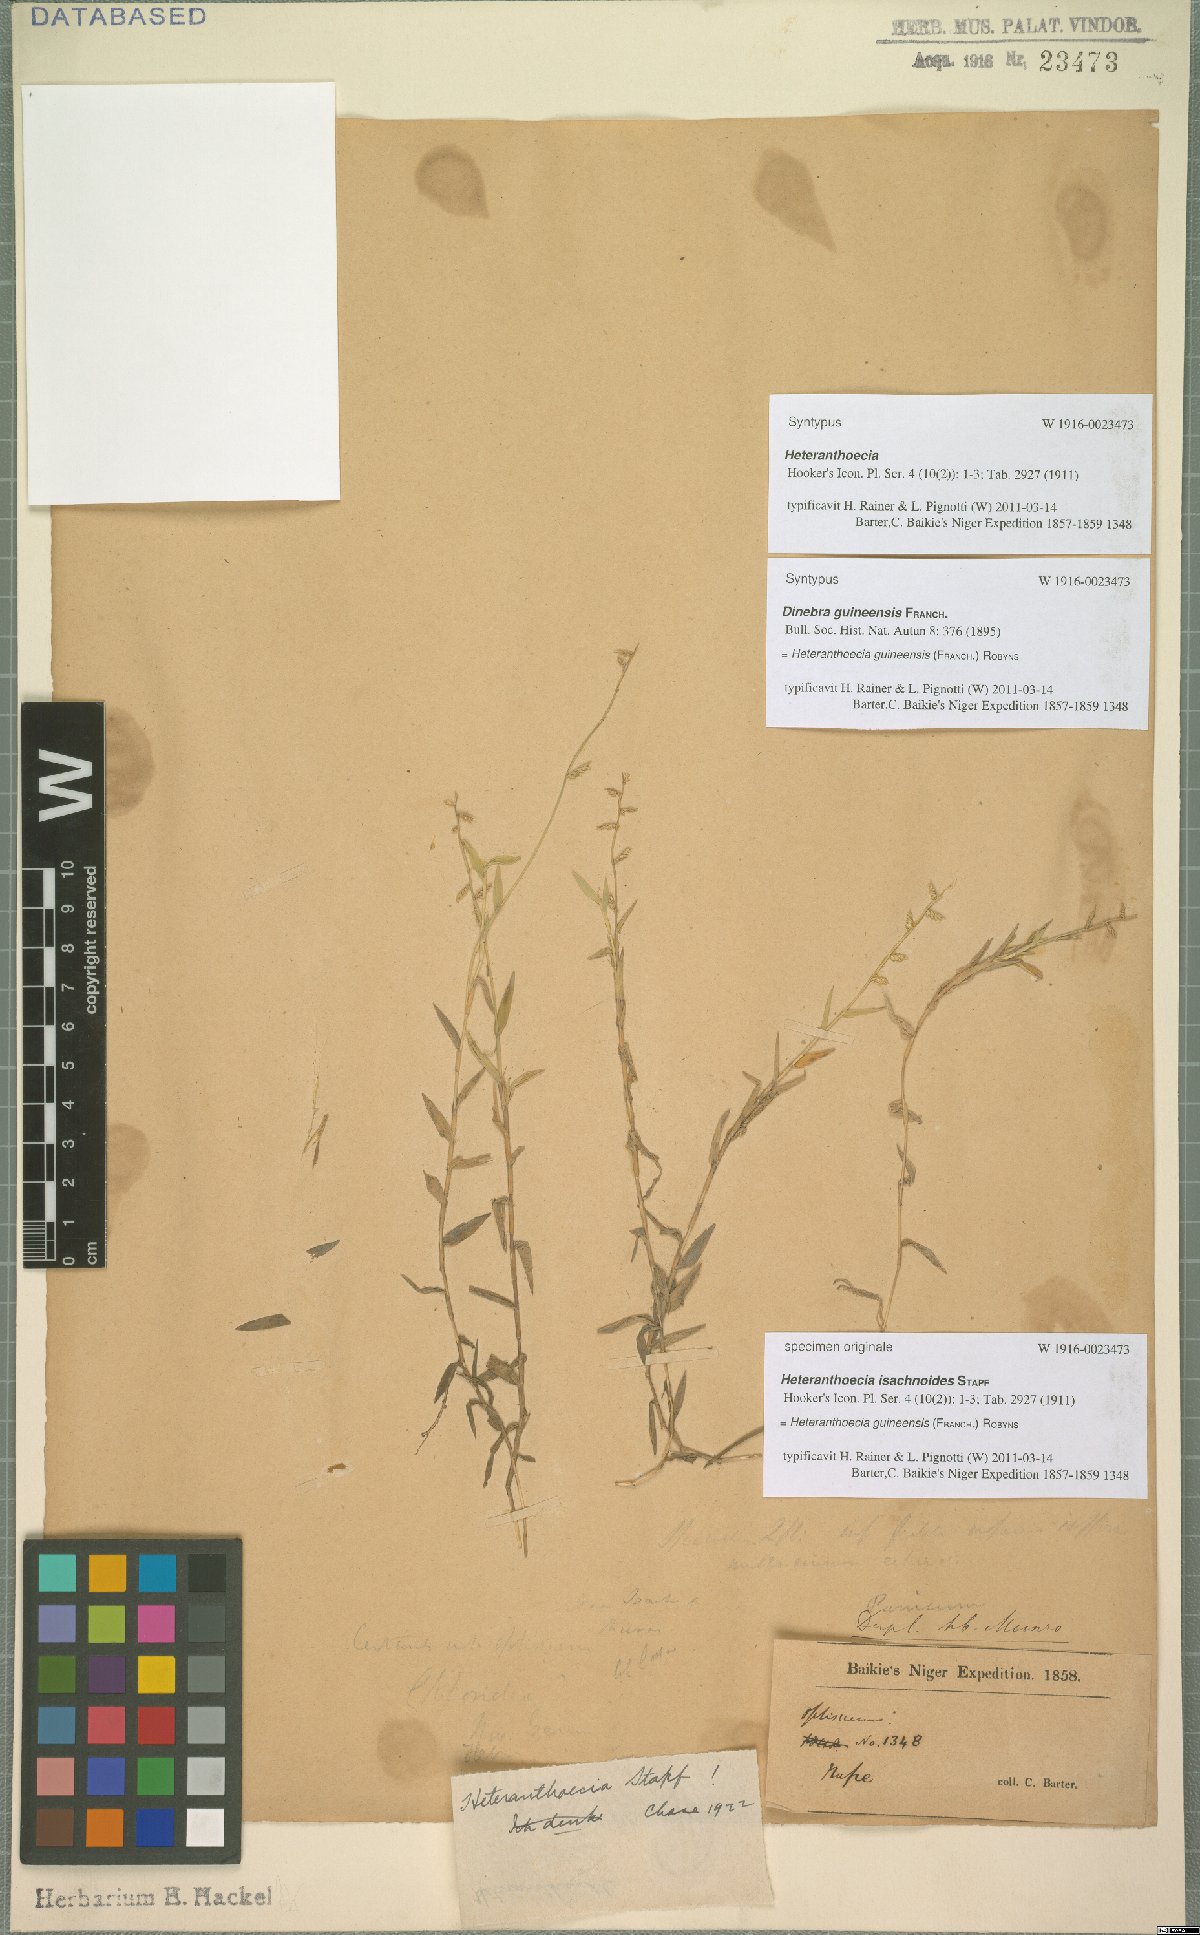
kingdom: Plantae
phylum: Tracheophyta
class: Liliopsida
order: Poales
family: Poaceae
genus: Heteranthoecia
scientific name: Heteranthoecia guineensis
